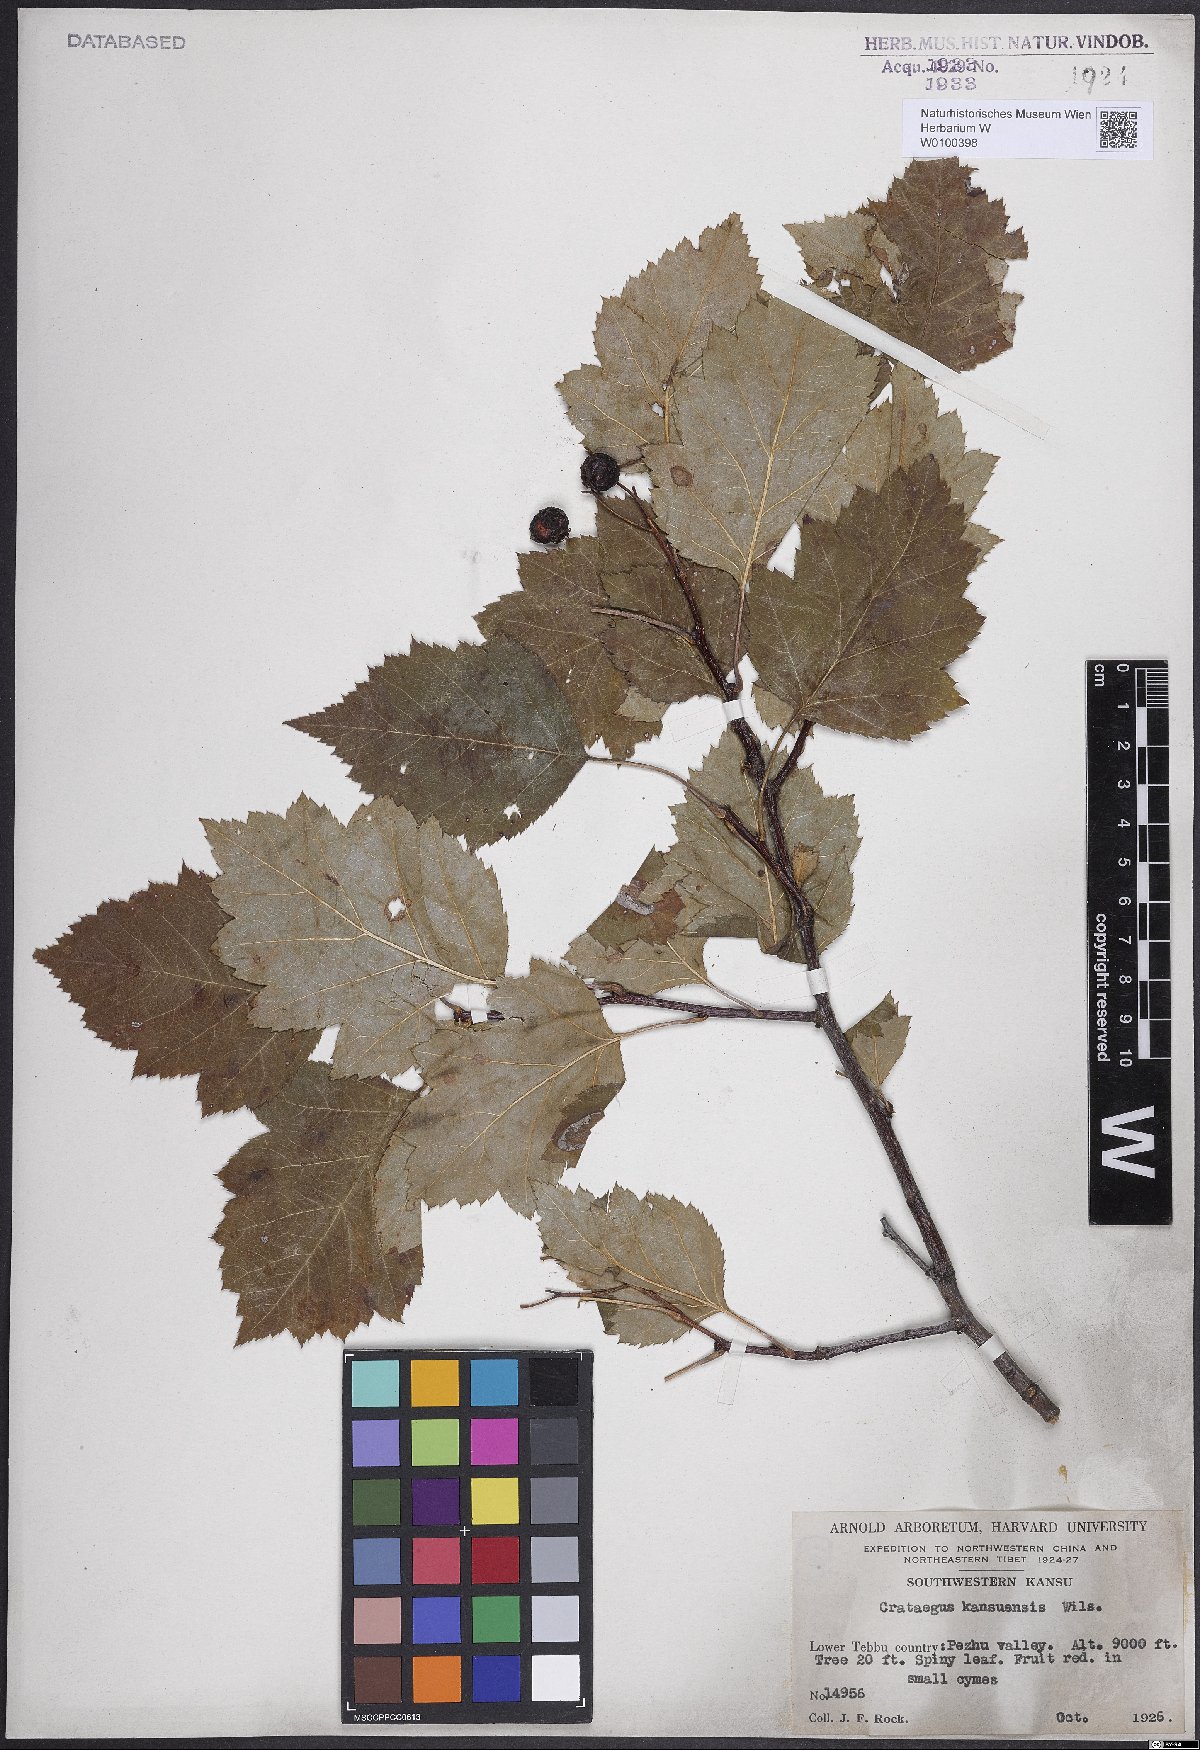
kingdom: Plantae
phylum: Tracheophyta
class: Magnoliopsida
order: Rosales
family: Rosaceae
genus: Crataegus
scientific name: Crataegus kansuensis
